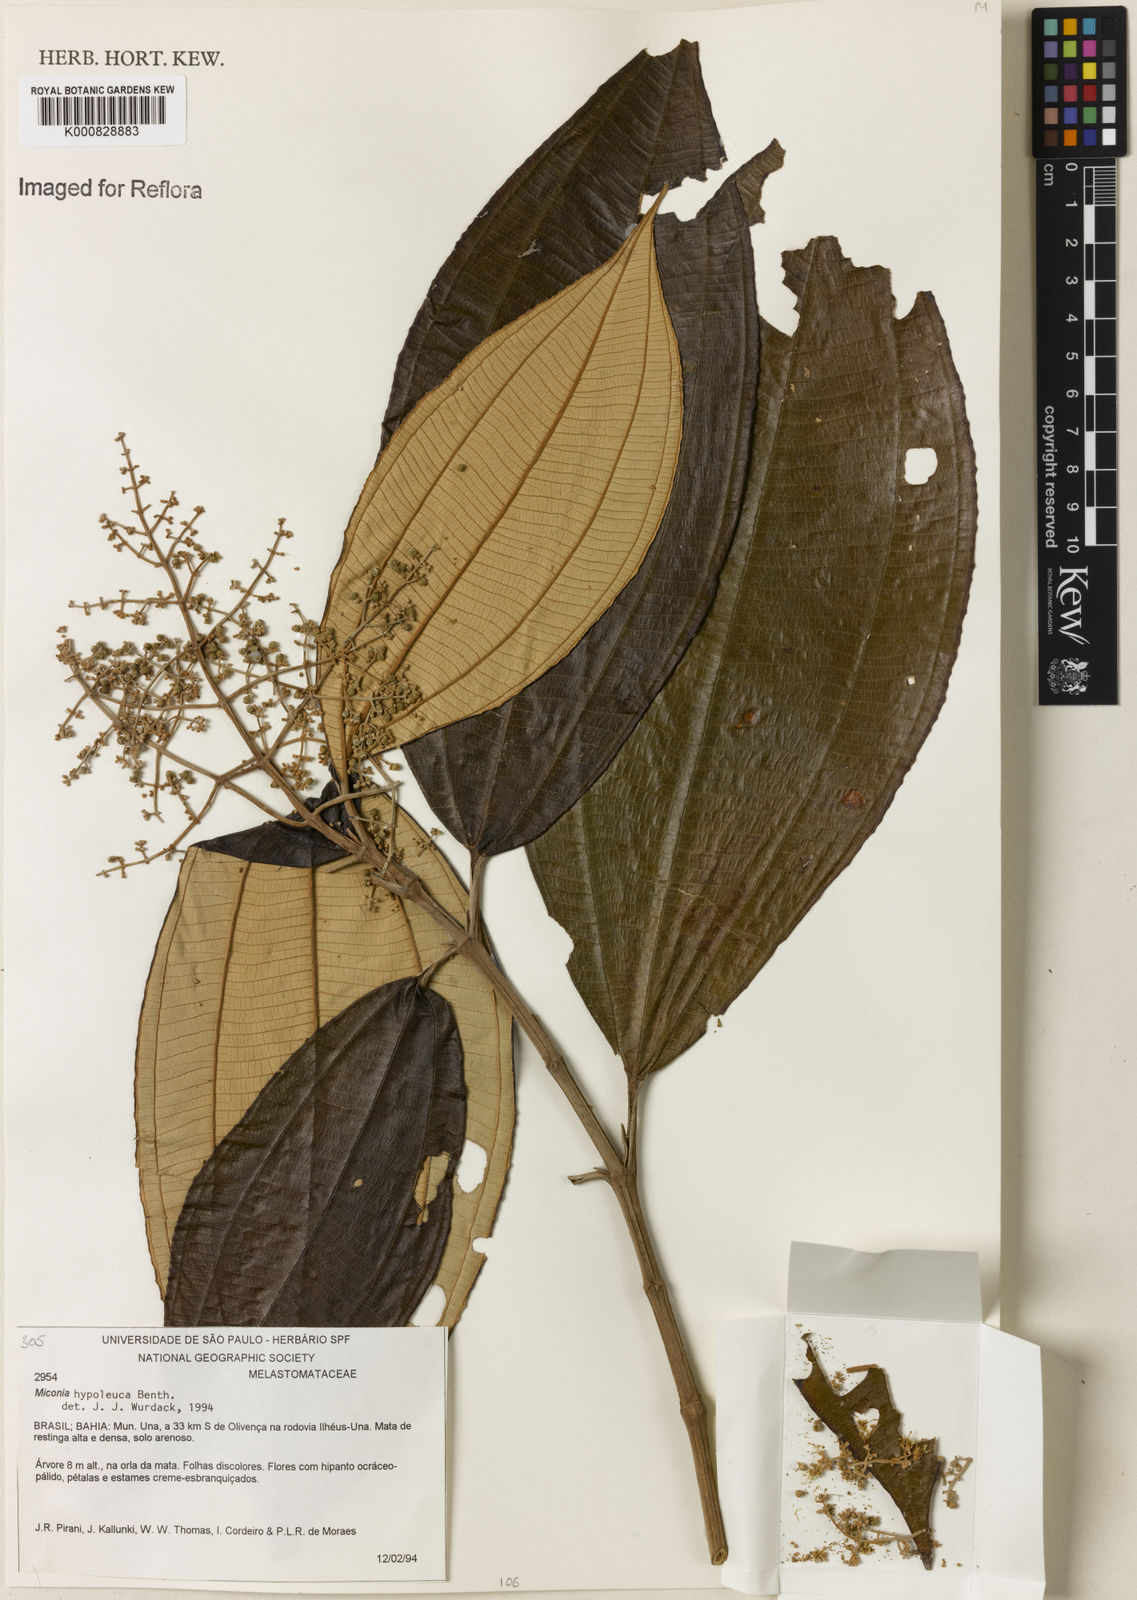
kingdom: Plantae
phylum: Tracheophyta
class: Magnoliopsida
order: Myrtales
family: Melastomataceae
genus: Miconia
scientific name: Miconia hypoleuca
